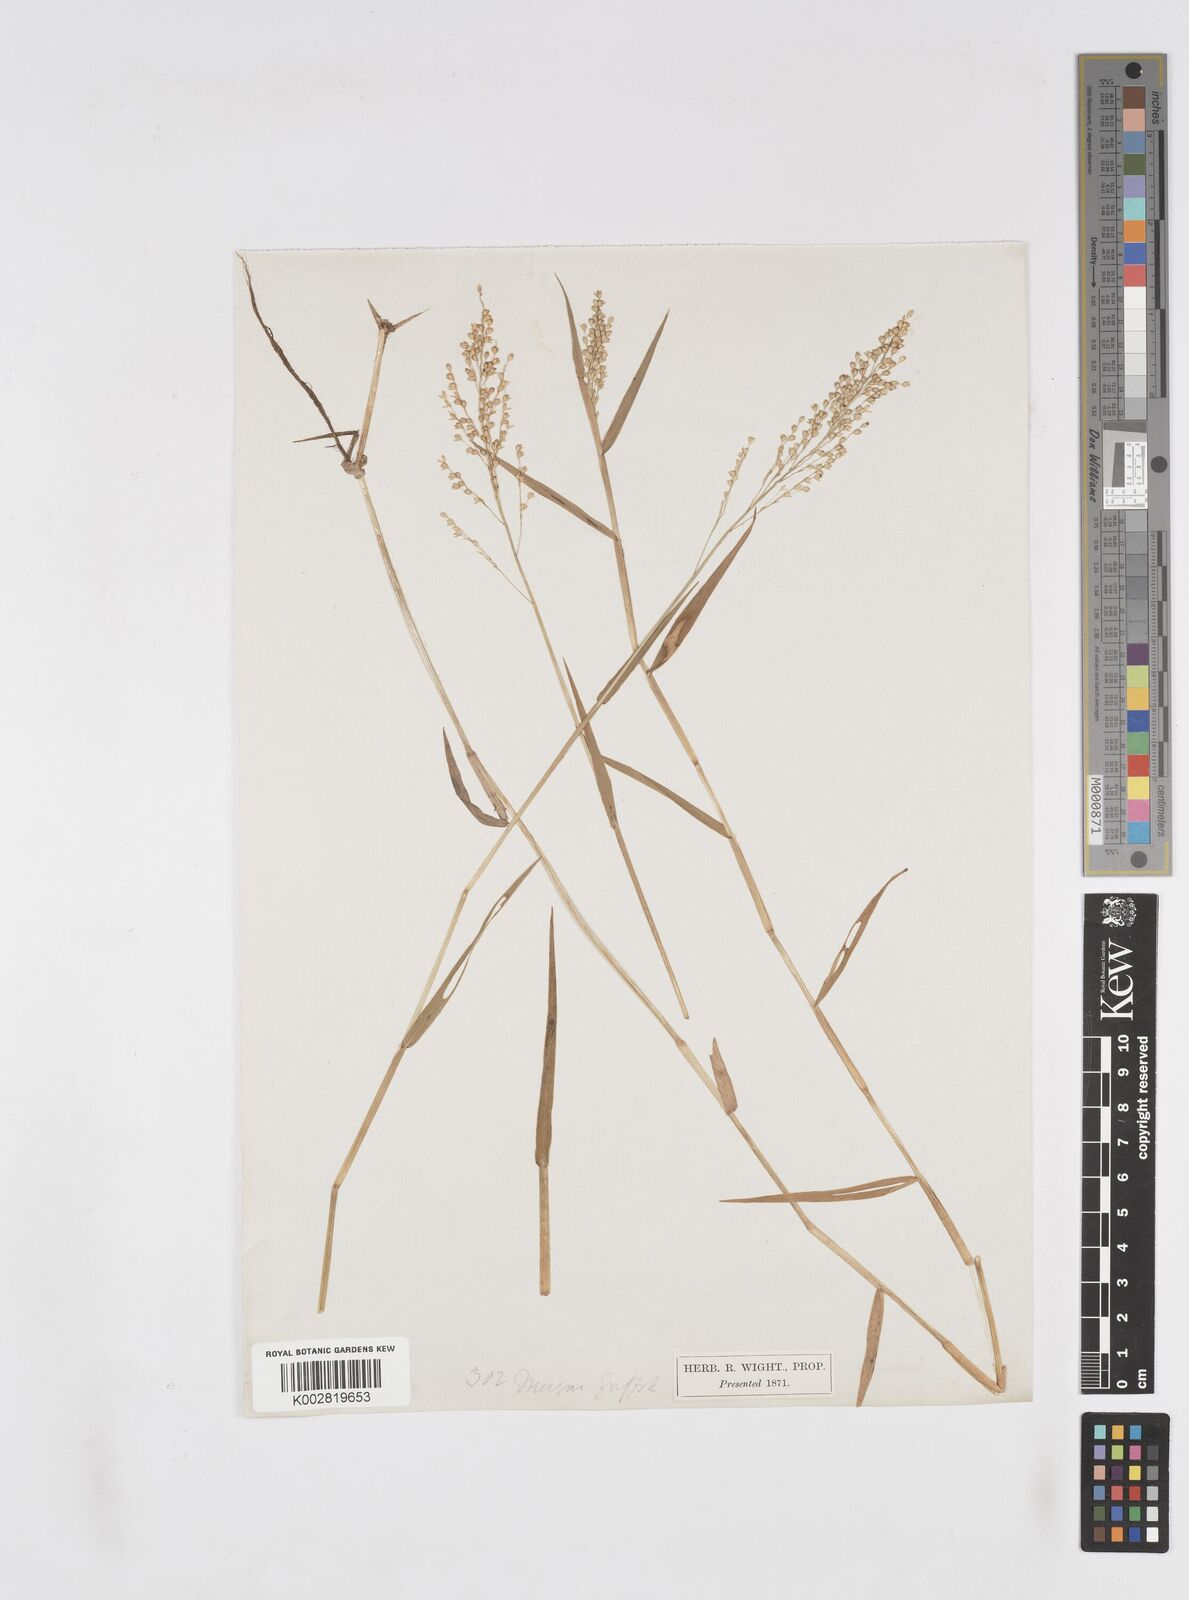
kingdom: Plantae
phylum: Tracheophyta
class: Liliopsida
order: Poales
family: Poaceae
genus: Isachne
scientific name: Isachne globosa
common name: Swamp millet
